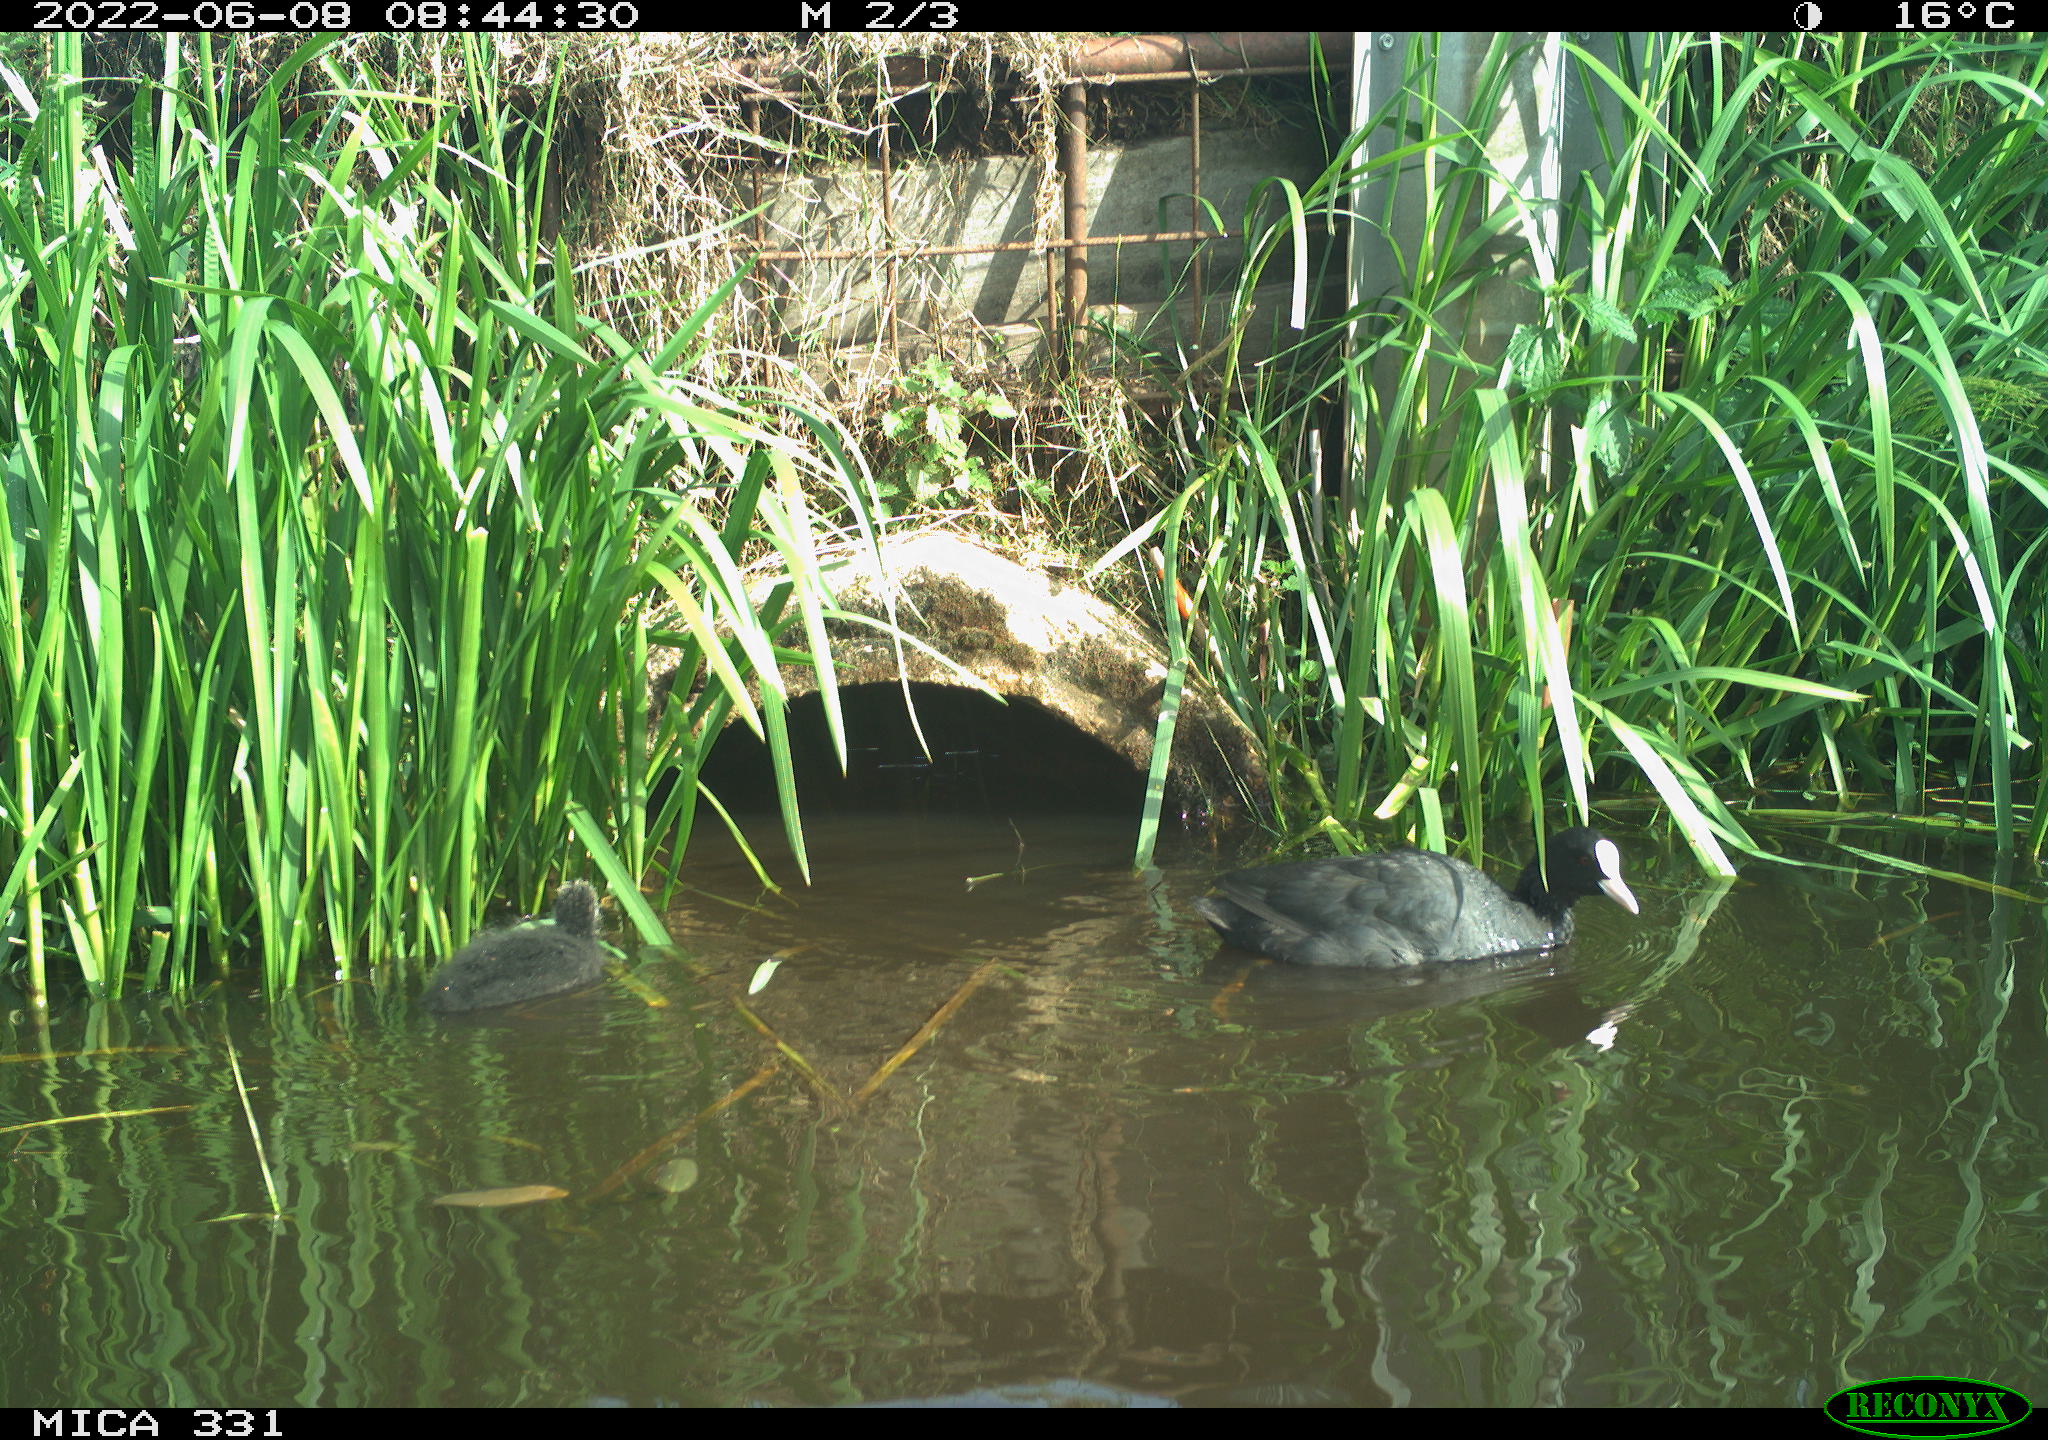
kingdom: Animalia
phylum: Chordata
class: Aves
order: Gruiformes
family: Rallidae
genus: Fulica
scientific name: Fulica atra
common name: Eurasian coot
